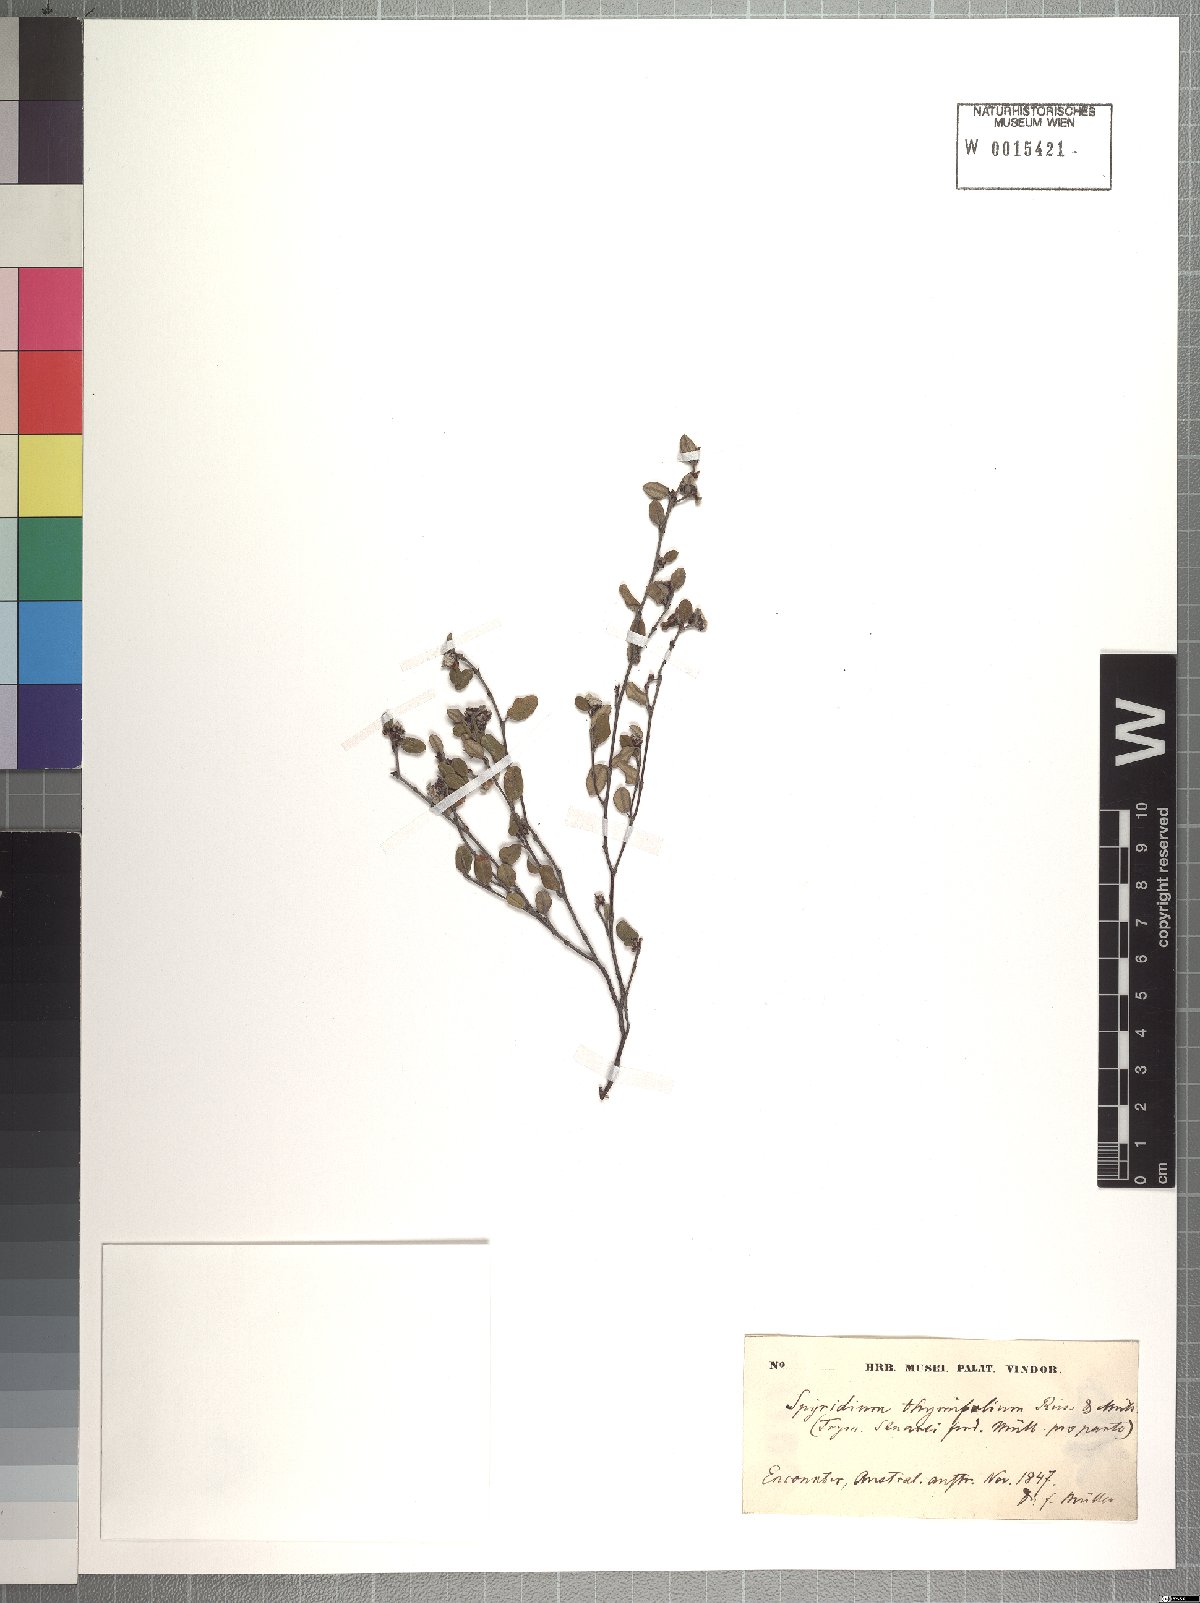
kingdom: Plantae
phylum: Tracheophyta
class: Magnoliopsida
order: Rosales
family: Rhamnaceae
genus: Spyridium
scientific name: Spyridium thymifolium
